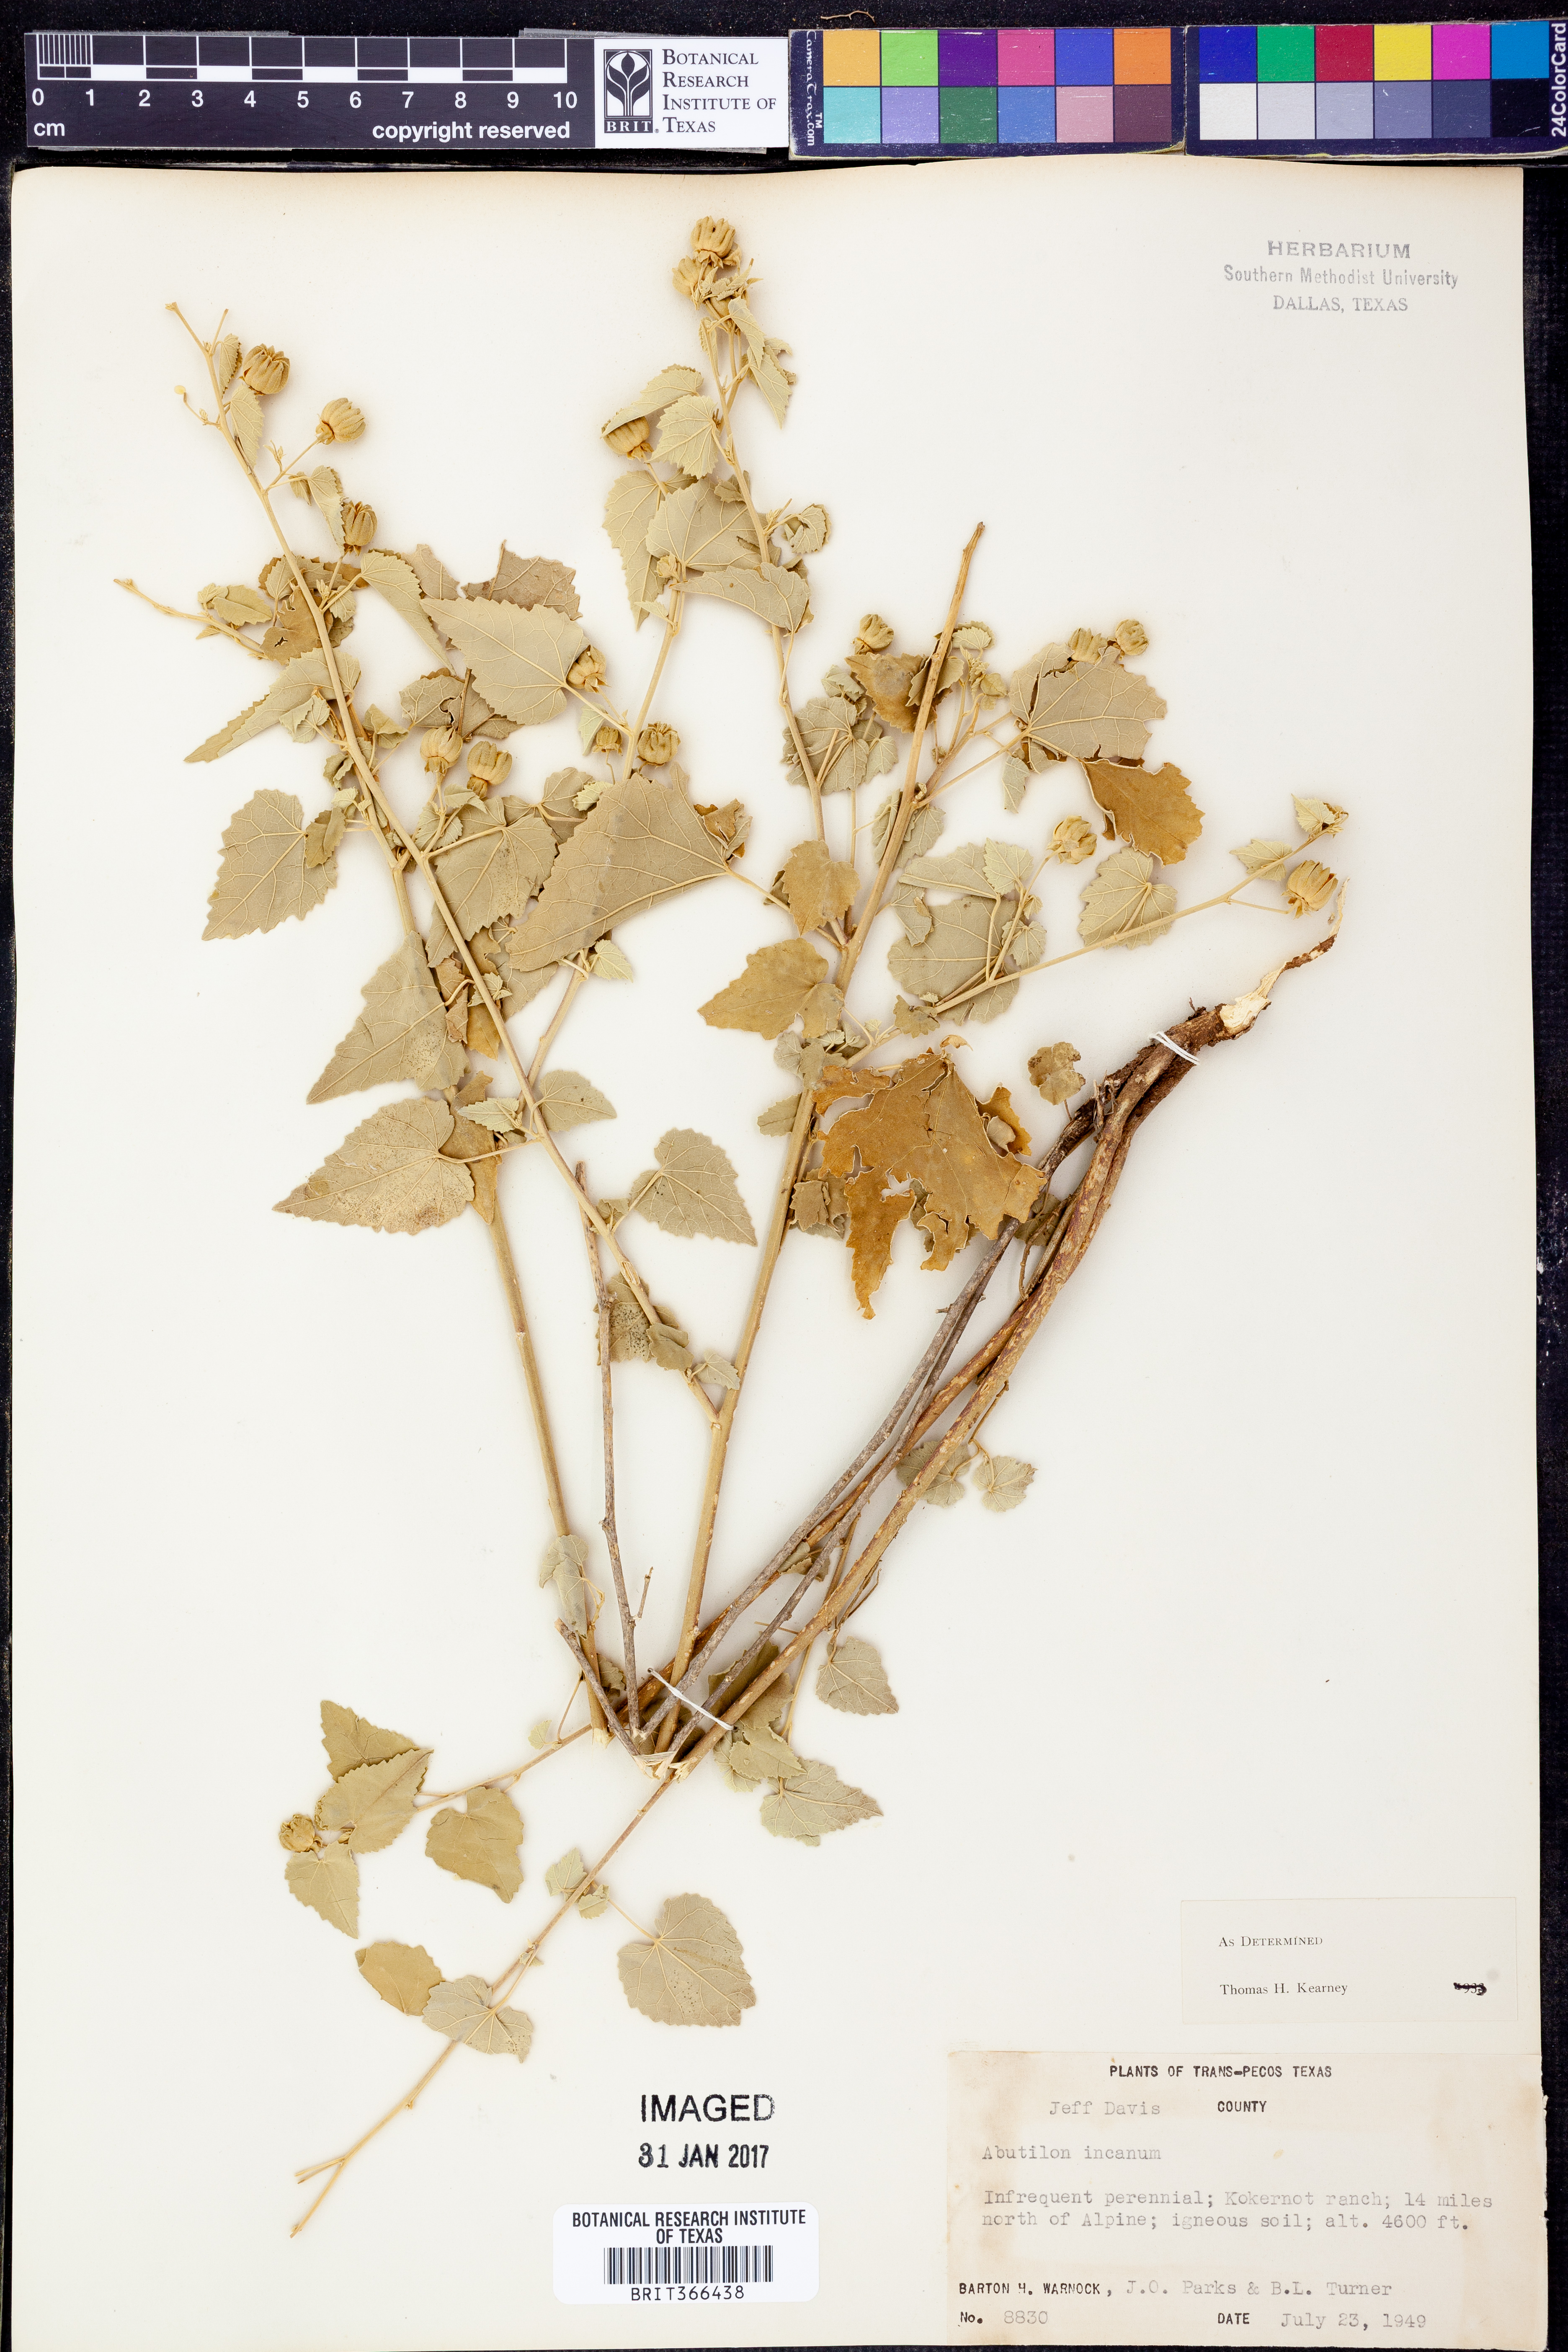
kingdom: Plantae
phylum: Tracheophyta
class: Magnoliopsida
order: Malvales
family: Malvaceae
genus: Abutilon
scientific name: Abutilon incanum
